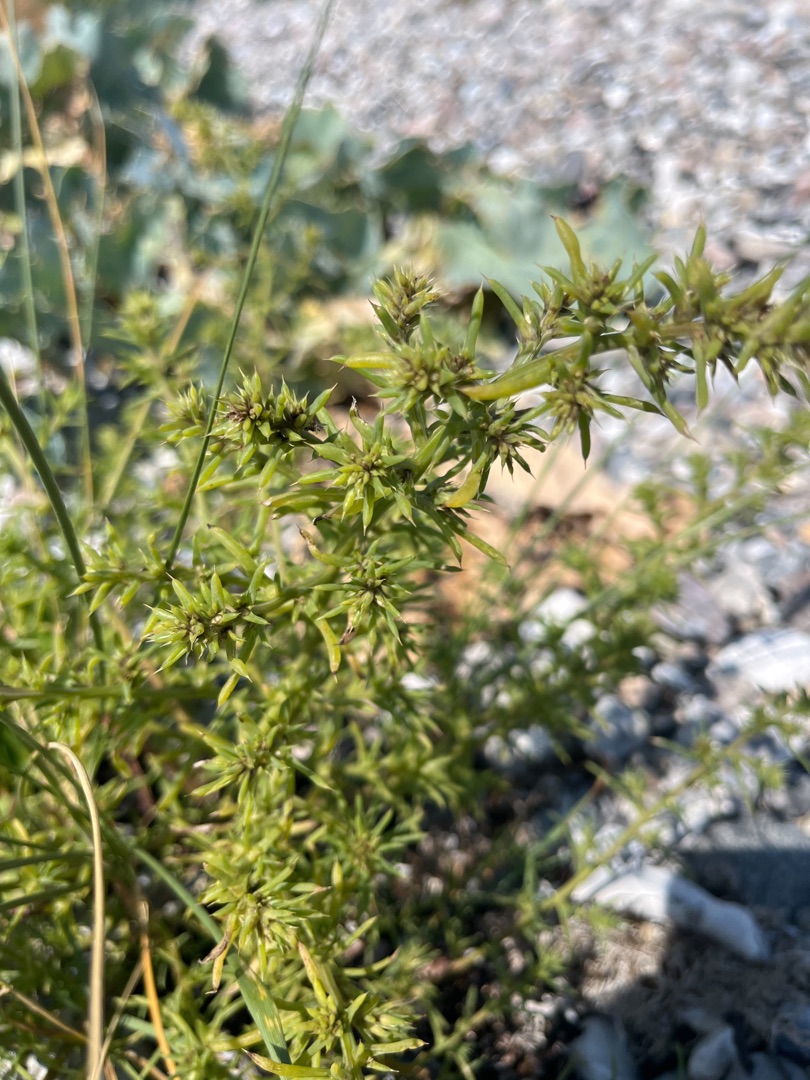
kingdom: Plantae
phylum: Tracheophyta
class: Magnoliopsida
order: Caryophyllales
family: Amaranthaceae
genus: Salsola
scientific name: Salsola kali
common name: Sodaurt
